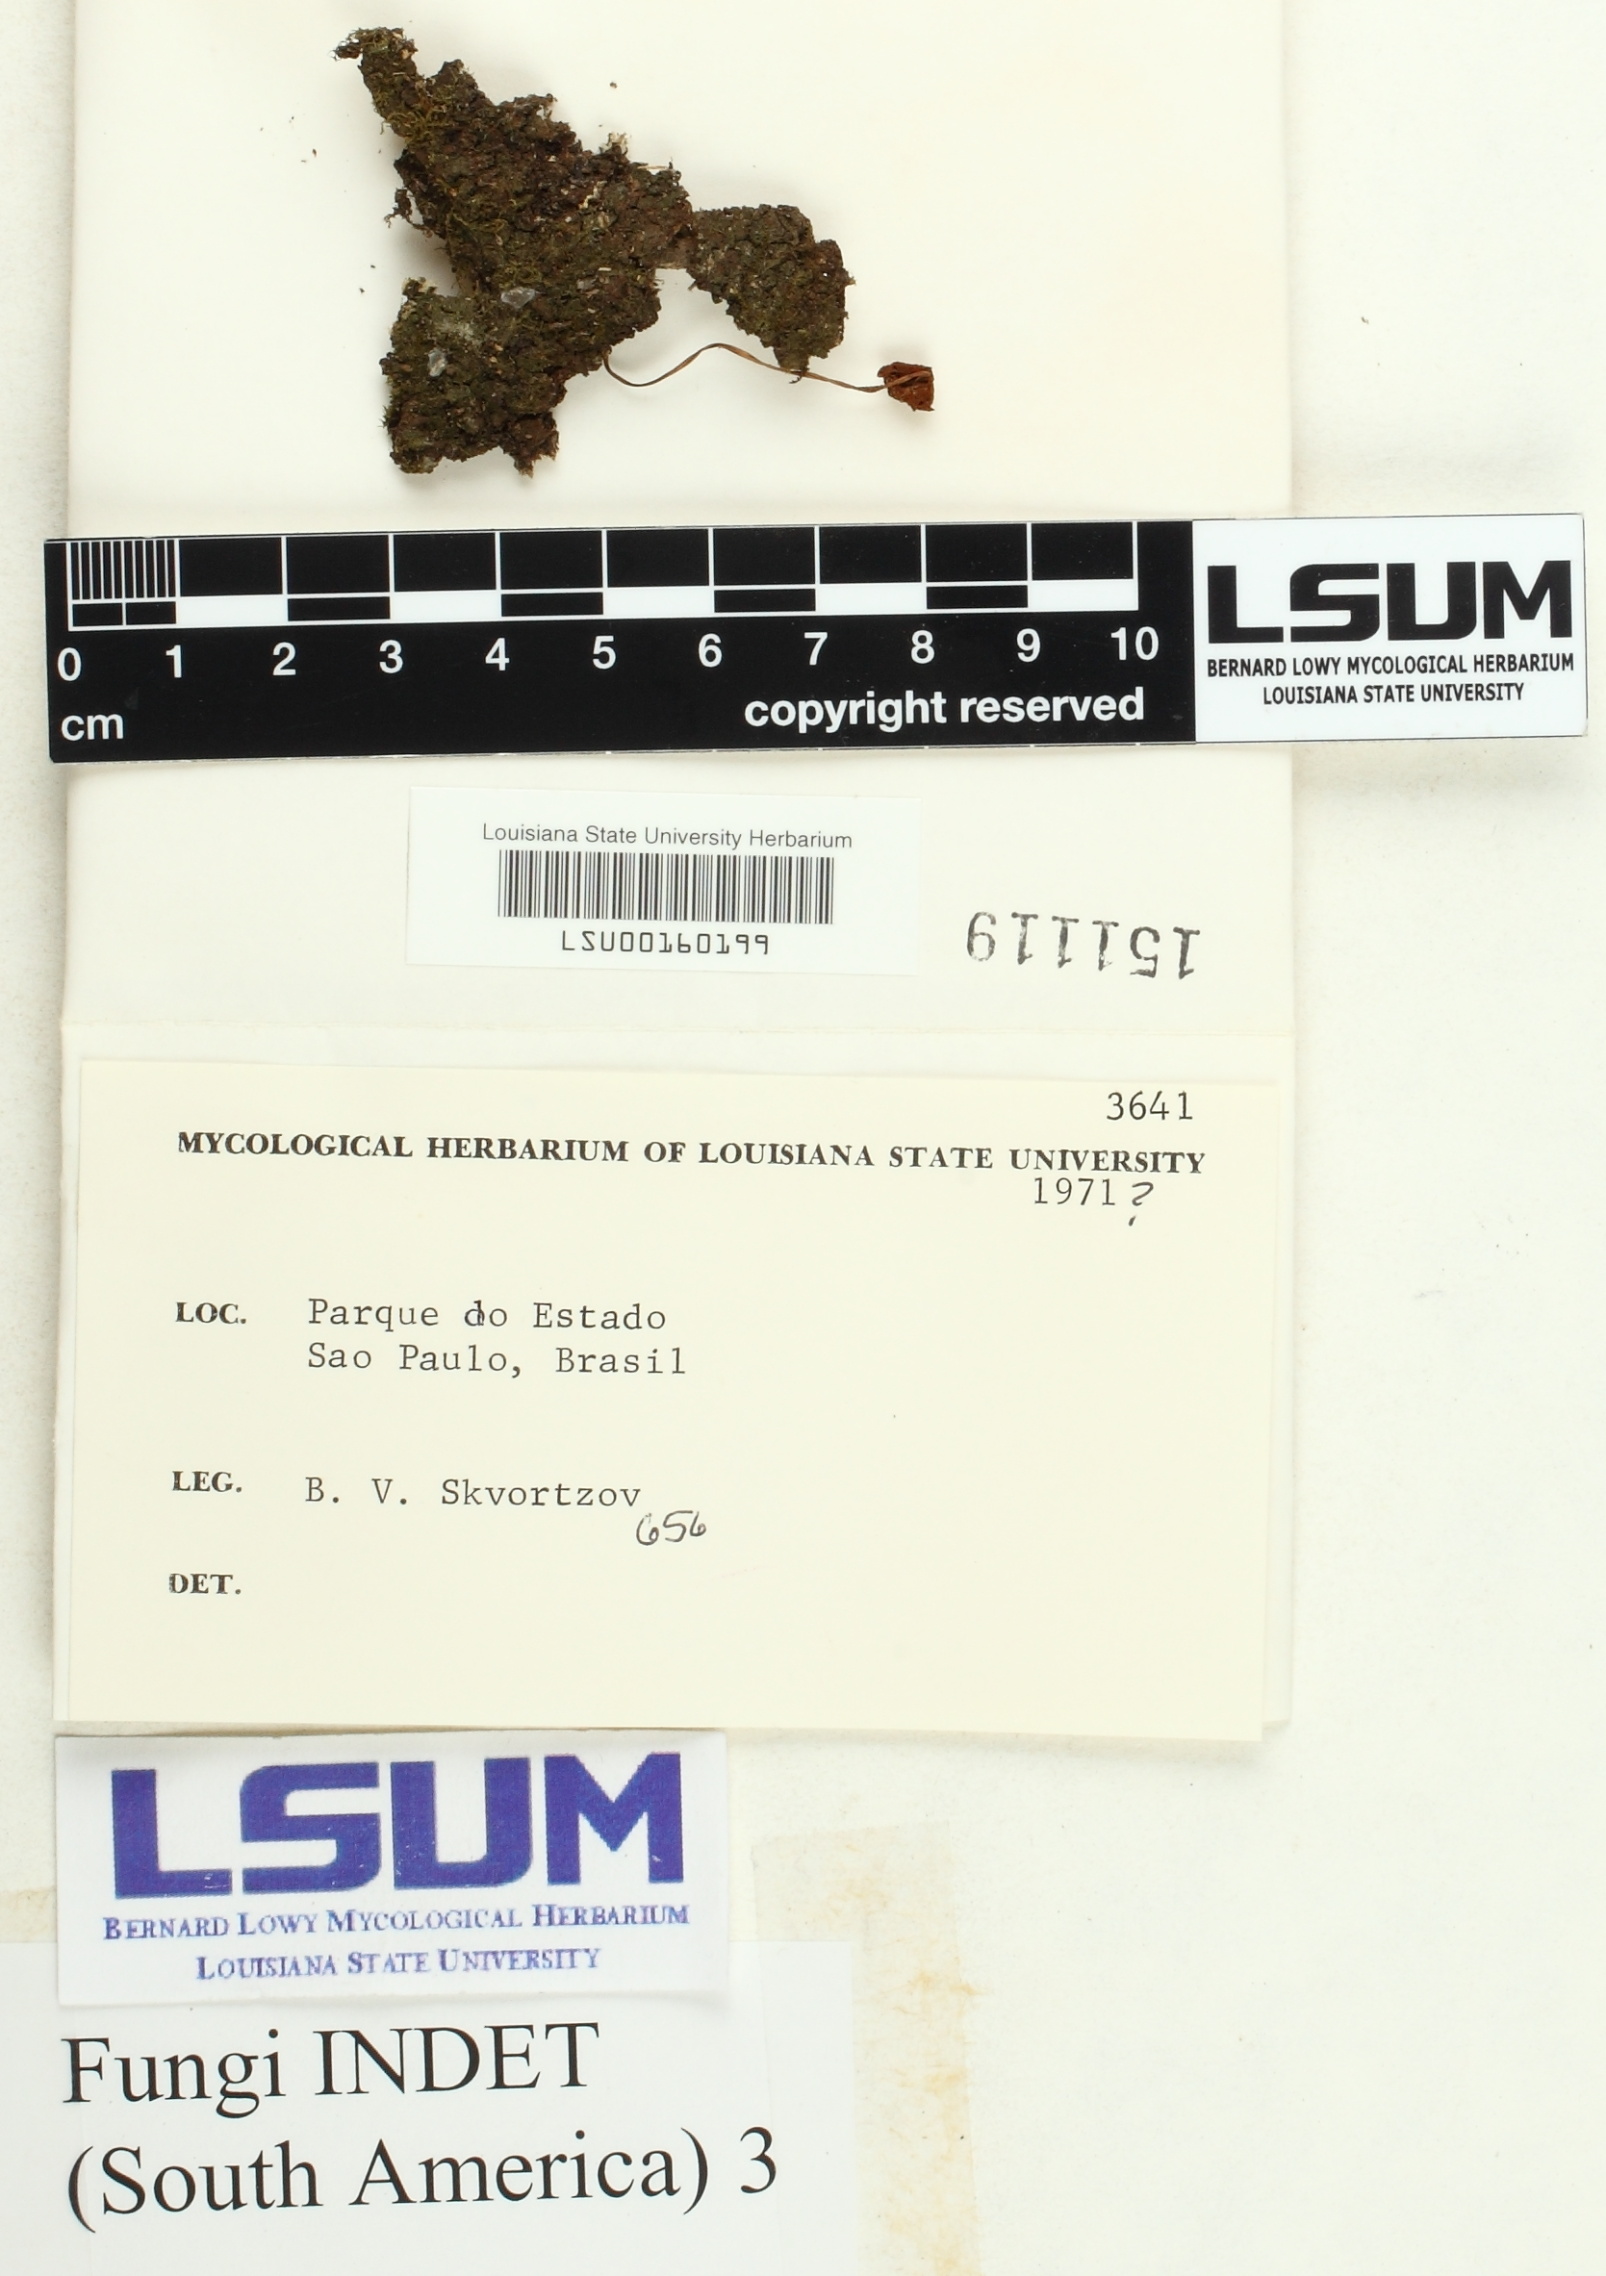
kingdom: Fungi
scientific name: Fungi
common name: Fungi
